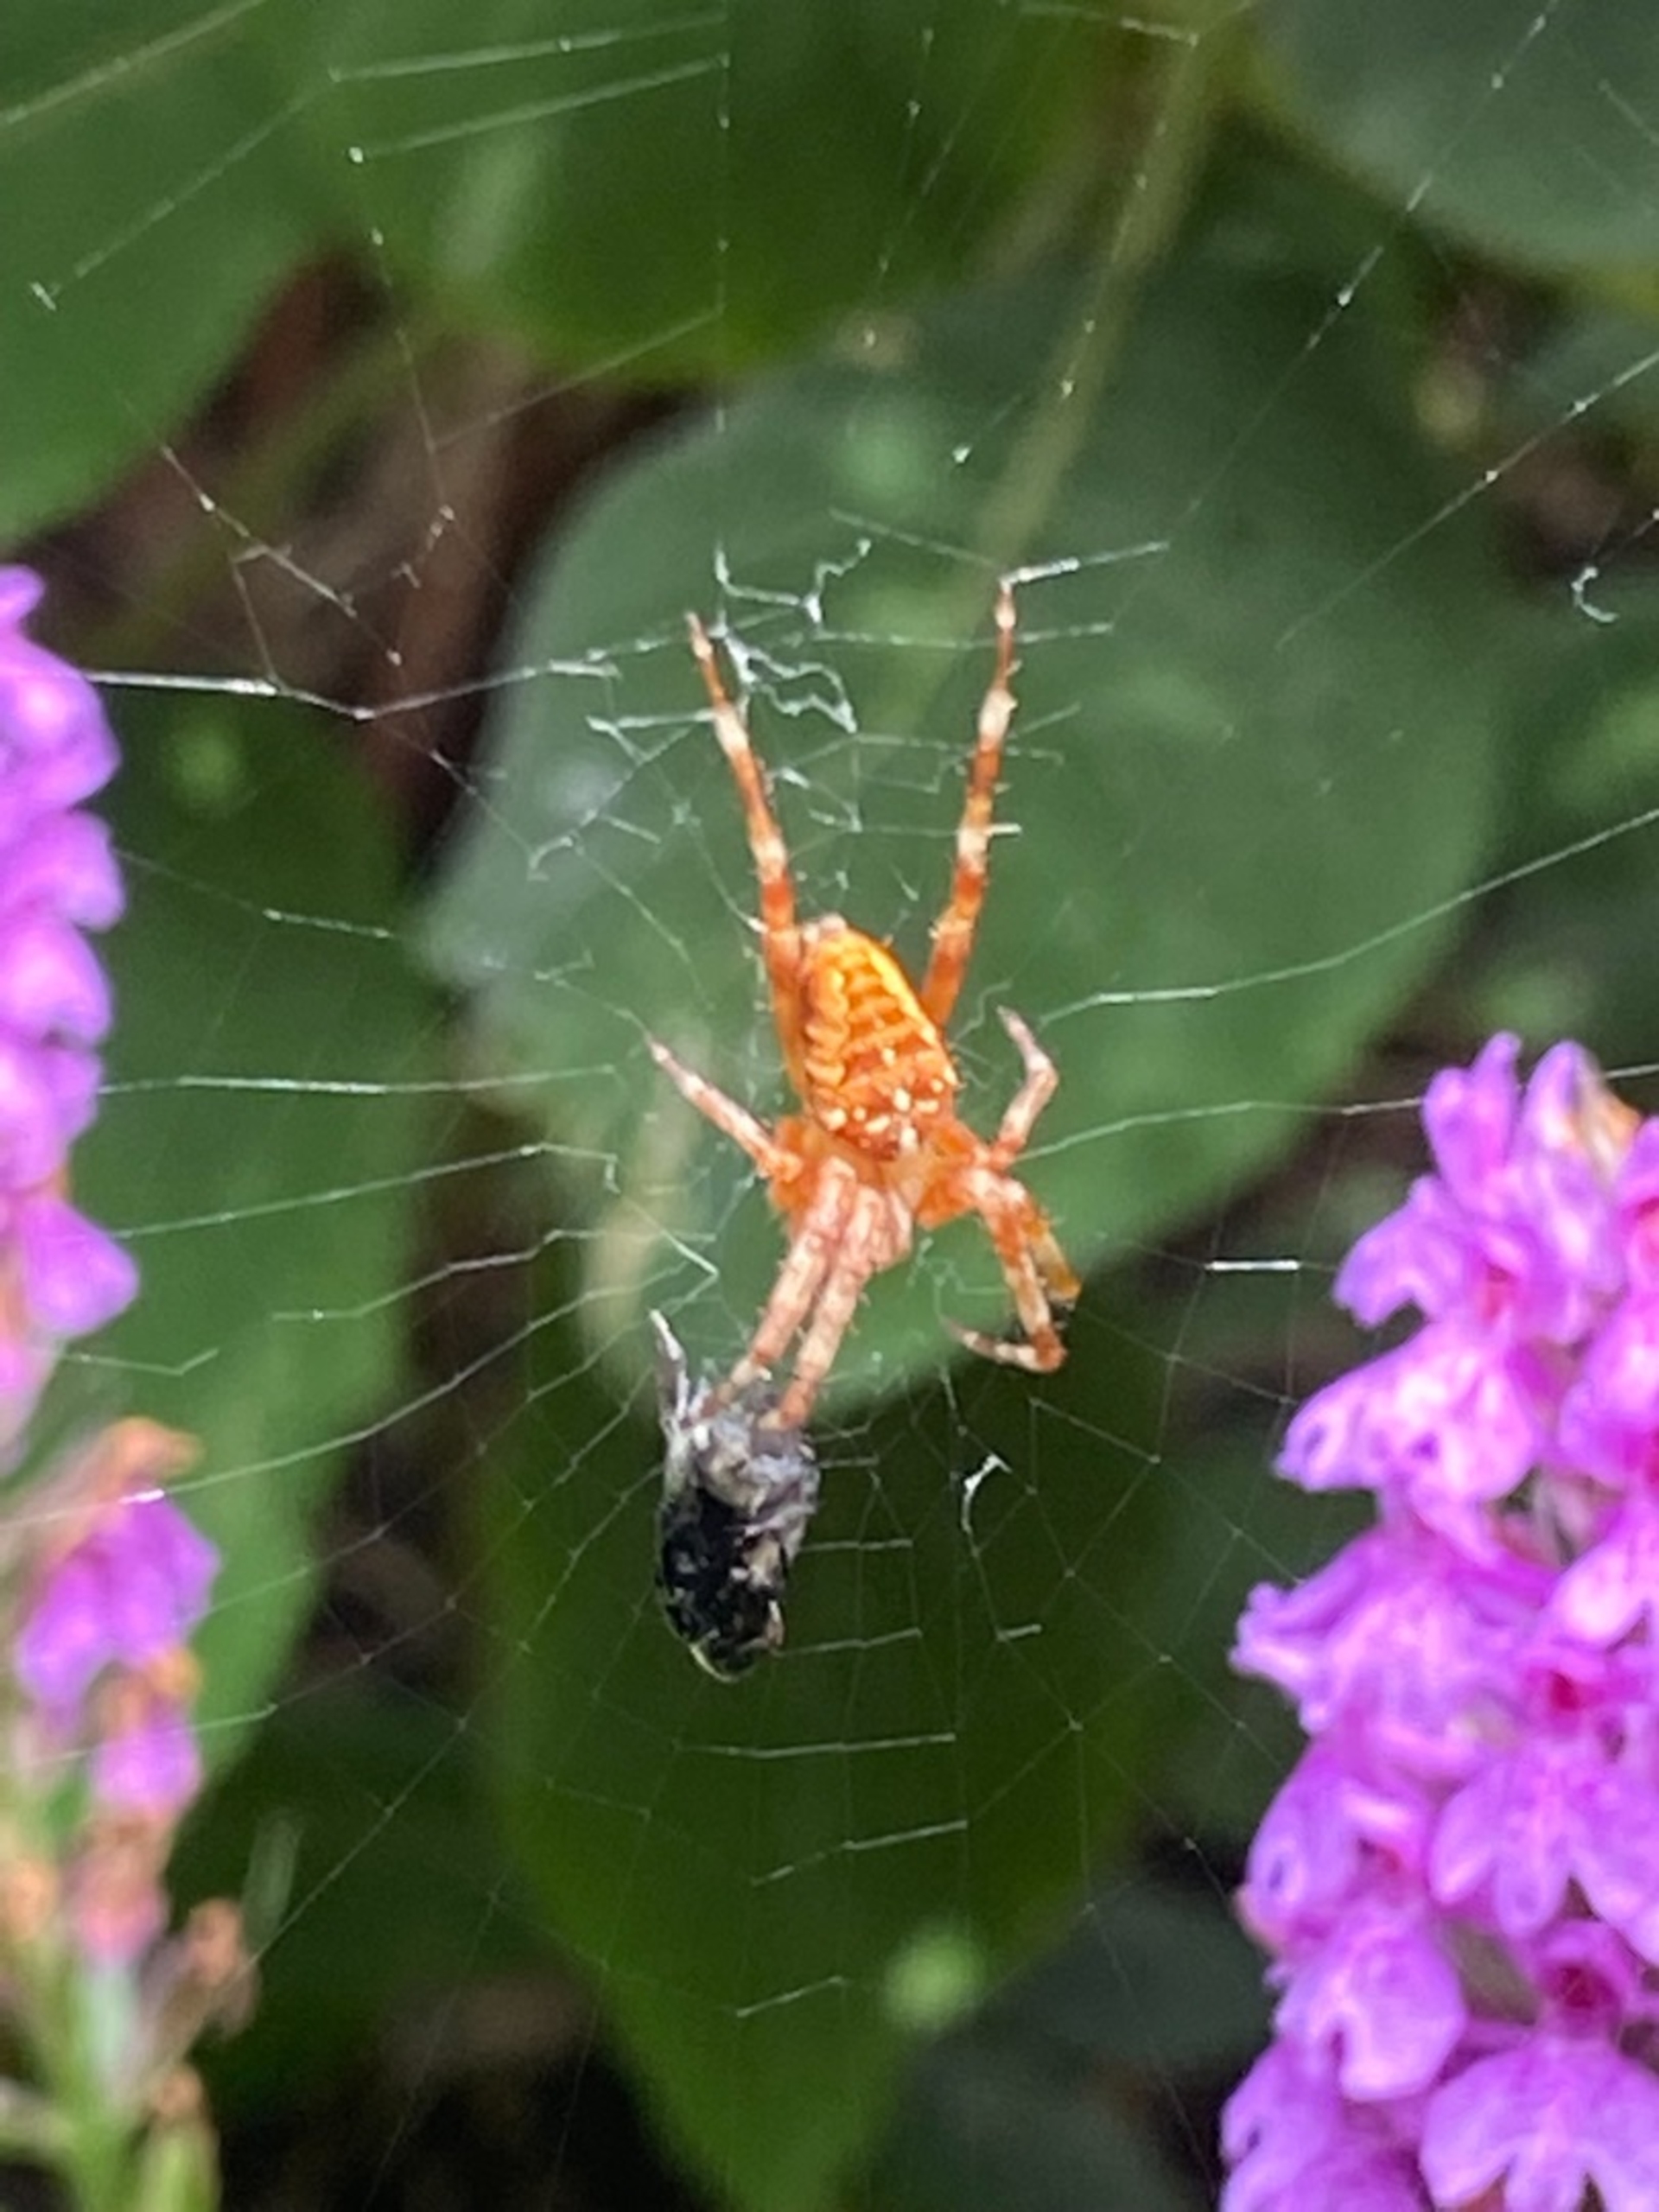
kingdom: Animalia
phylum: Arthropoda
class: Arachnida
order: Araneae
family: Araneidae
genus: Araneus
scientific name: Araneus diadematus
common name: Korsedderkop
